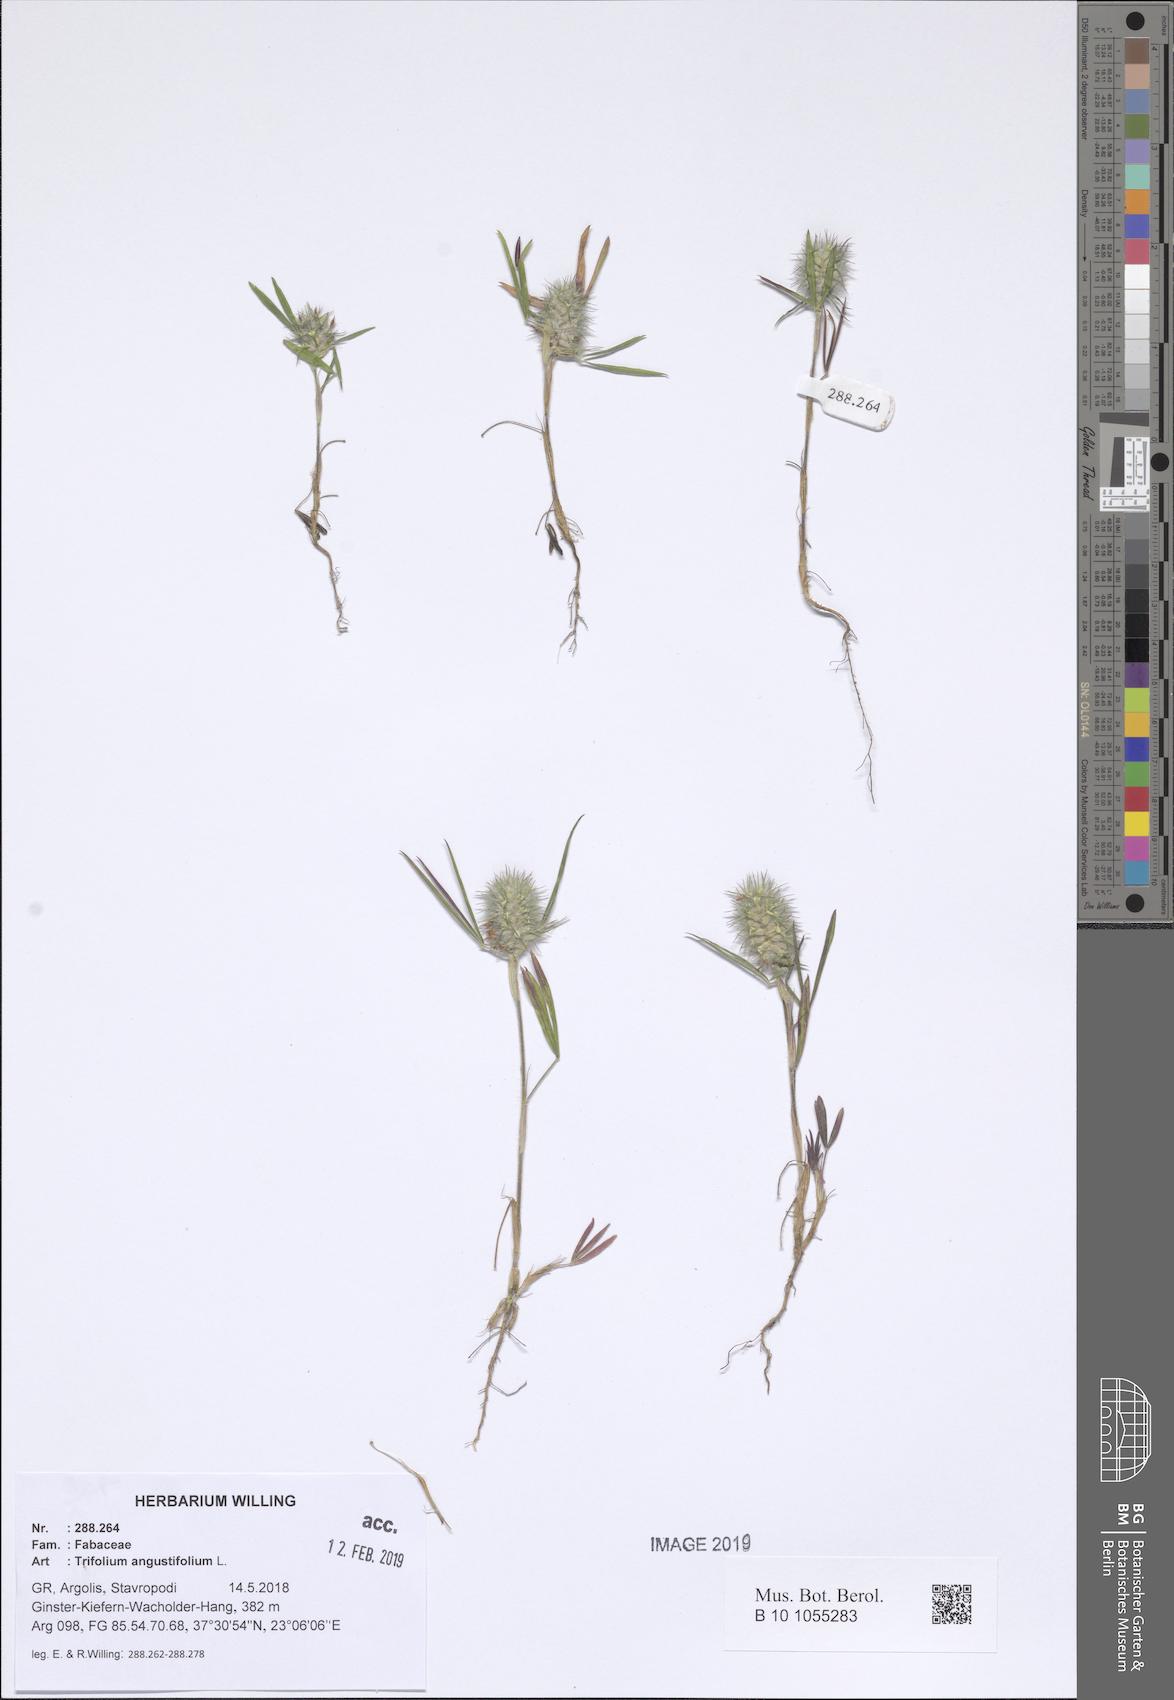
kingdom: Plantae
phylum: Tracheophyta
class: Magnoliopsida
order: Fabales
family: Fabaceae
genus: Trifolium
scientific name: Trifolium angustifolium
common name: Narrow clover
